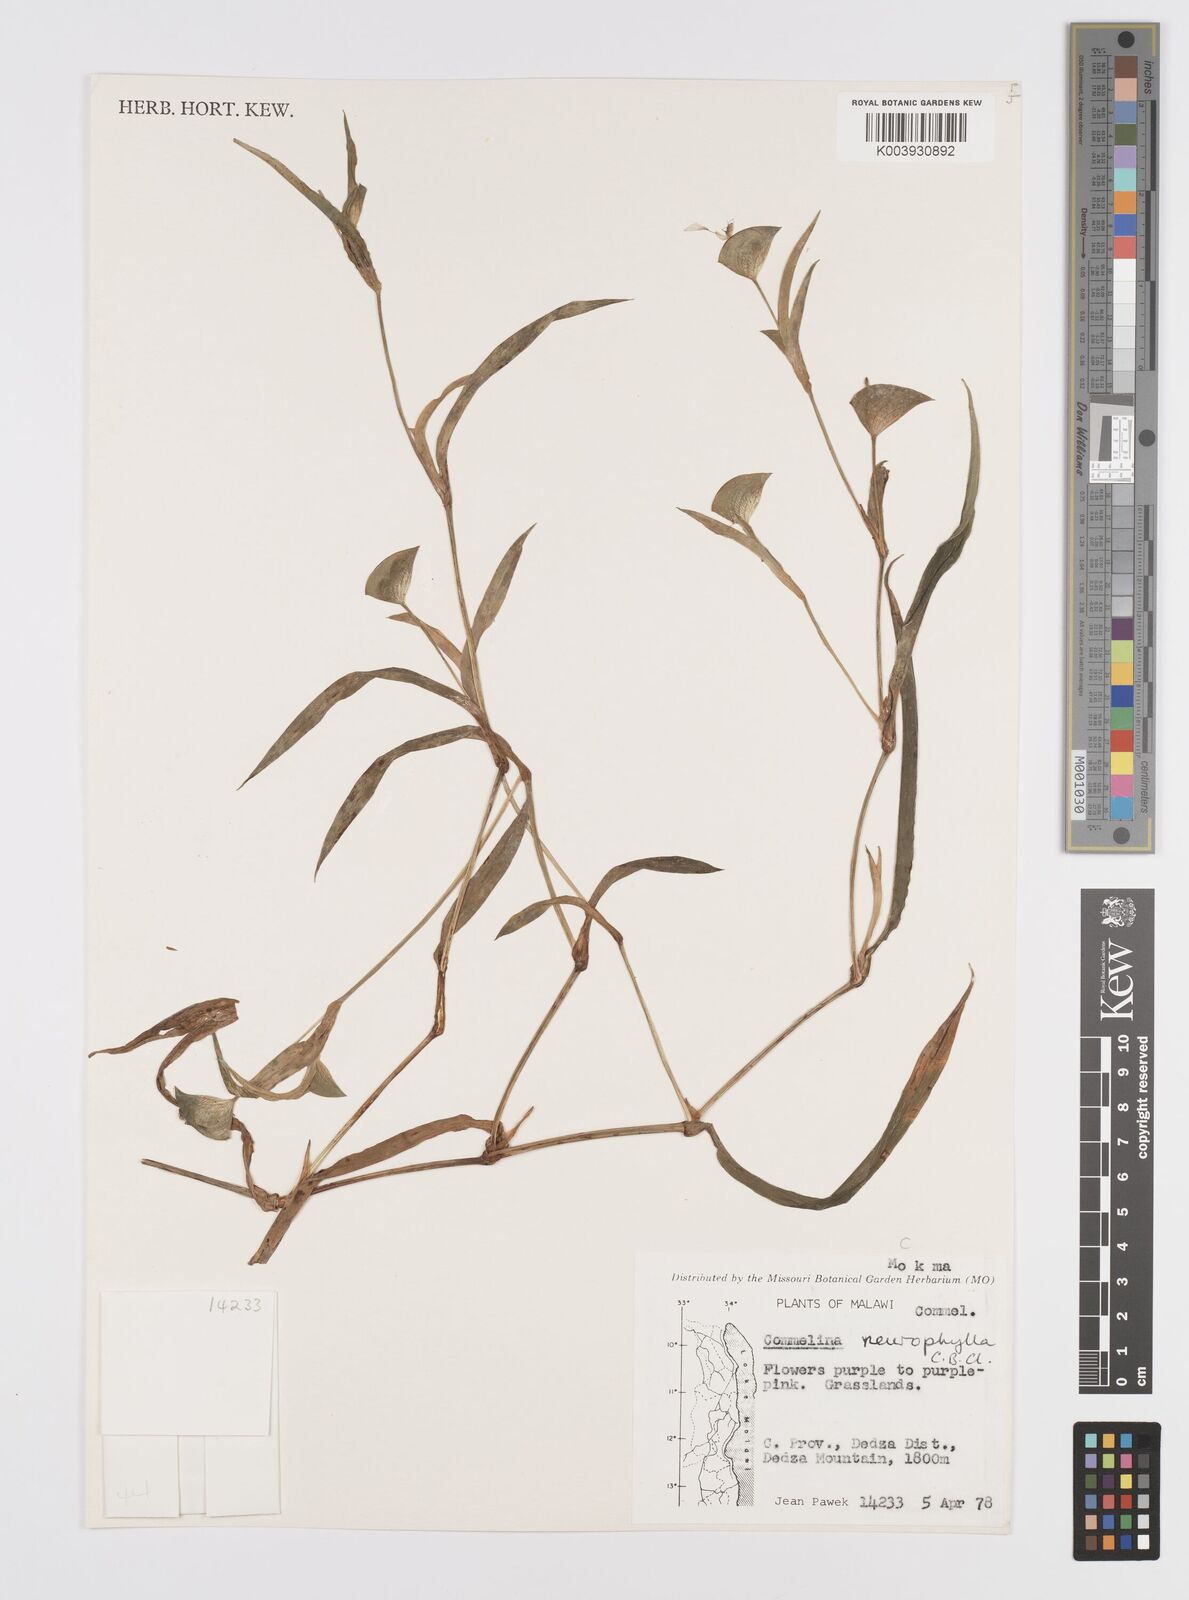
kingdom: Plantae
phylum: Tracheophyta
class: Liliopsida
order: Commelinales
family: Commelinaceae
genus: Commelina
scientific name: Commelina neurophylla
